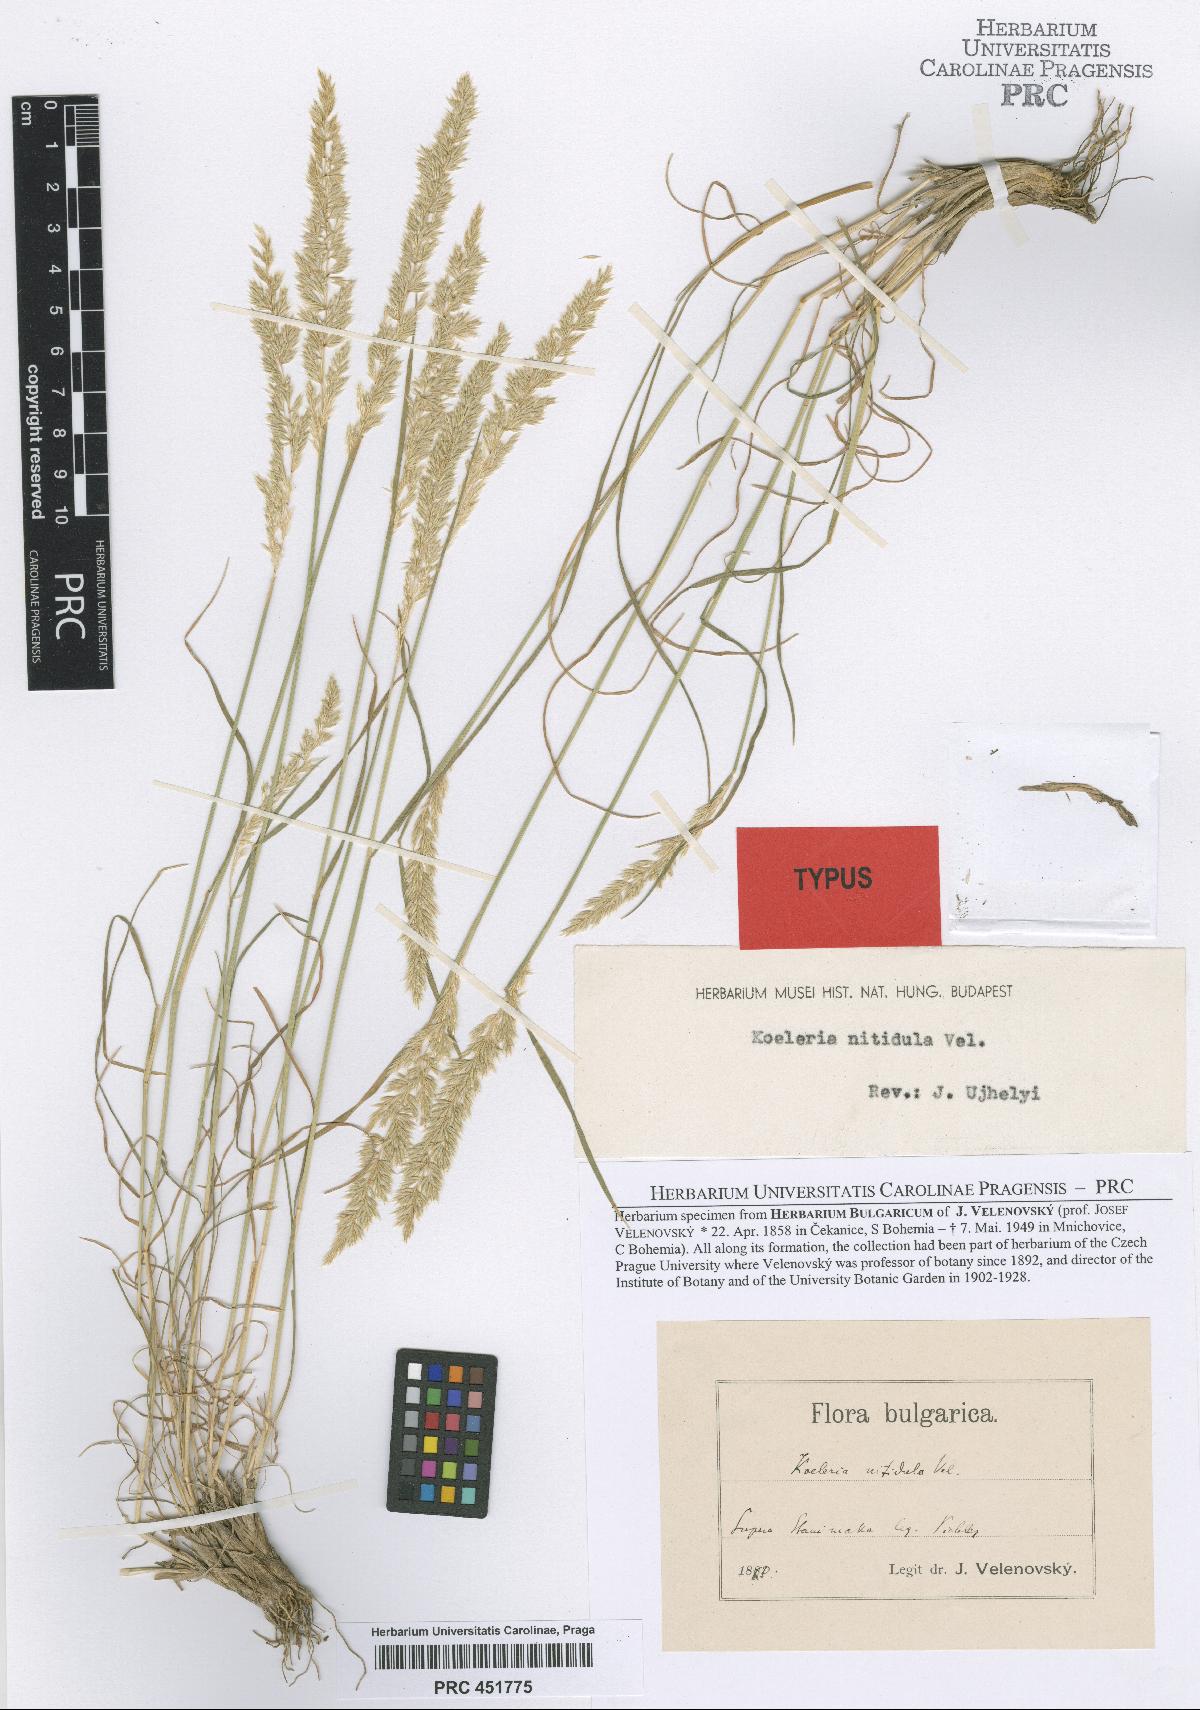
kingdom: Plantae
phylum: Tracheophyta
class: Liliopsida
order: Poales
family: Poaceae
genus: Koeleria
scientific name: Koeleria nitidula
